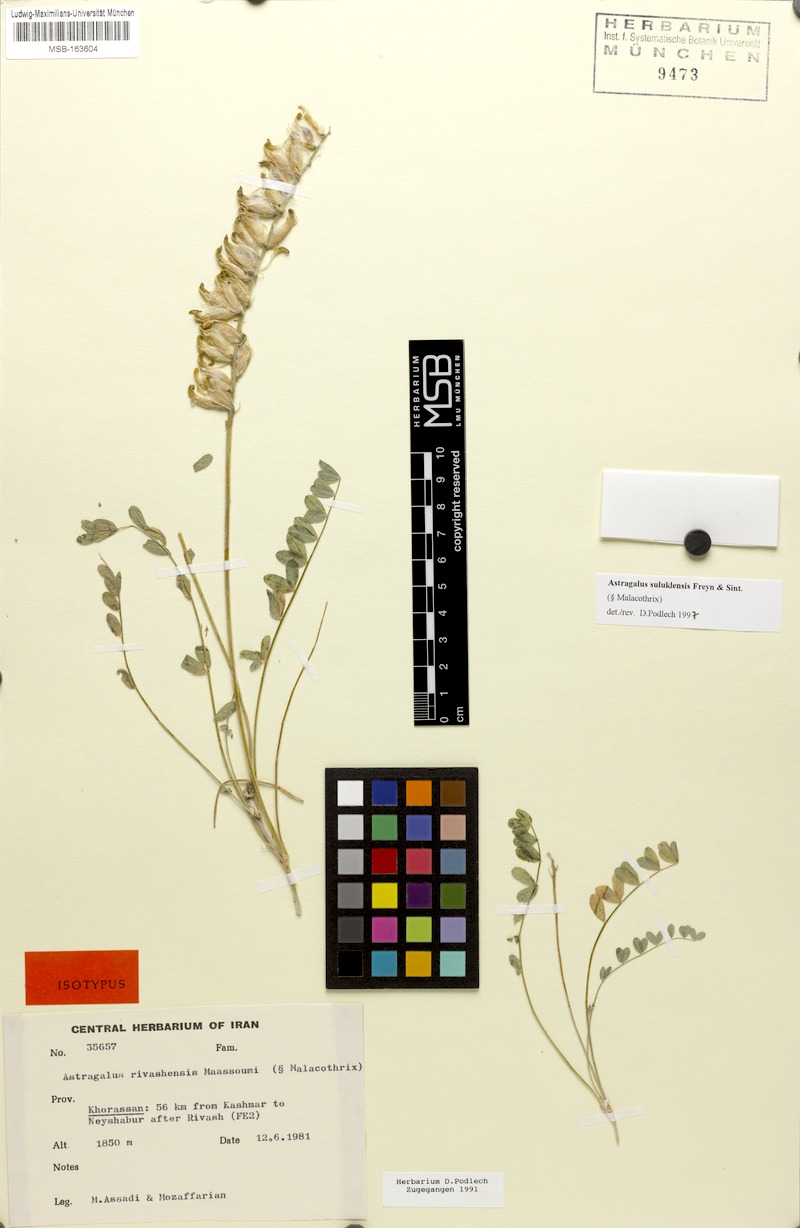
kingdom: Plantae
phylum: Tracheophyta
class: Magnoliopsida
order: Fabales
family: Fabaceae
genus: Astragalus
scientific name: Astragalus suluklensis
